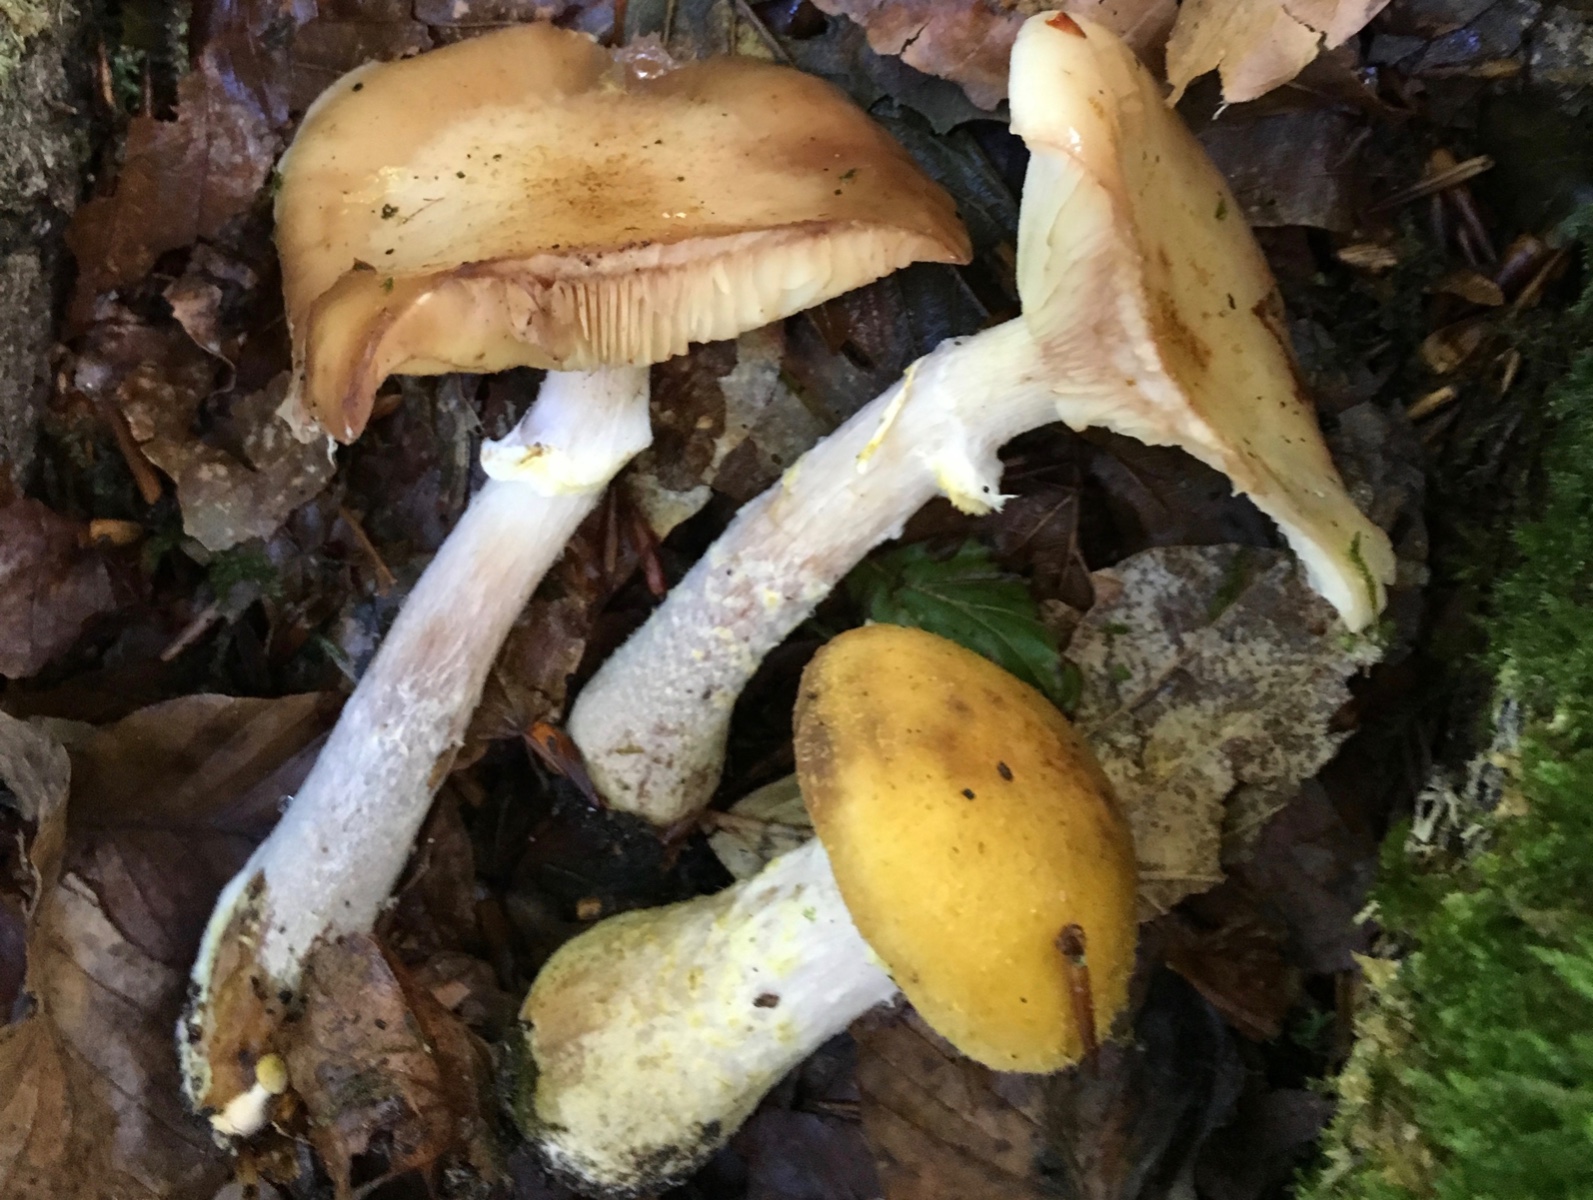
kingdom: Fungi
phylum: Basidiomycota
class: Agaricomycetes
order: Agaricales
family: Physalacriaceae
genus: Armillaria
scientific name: Armillaria lutea
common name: køllestokket honningsvamp
